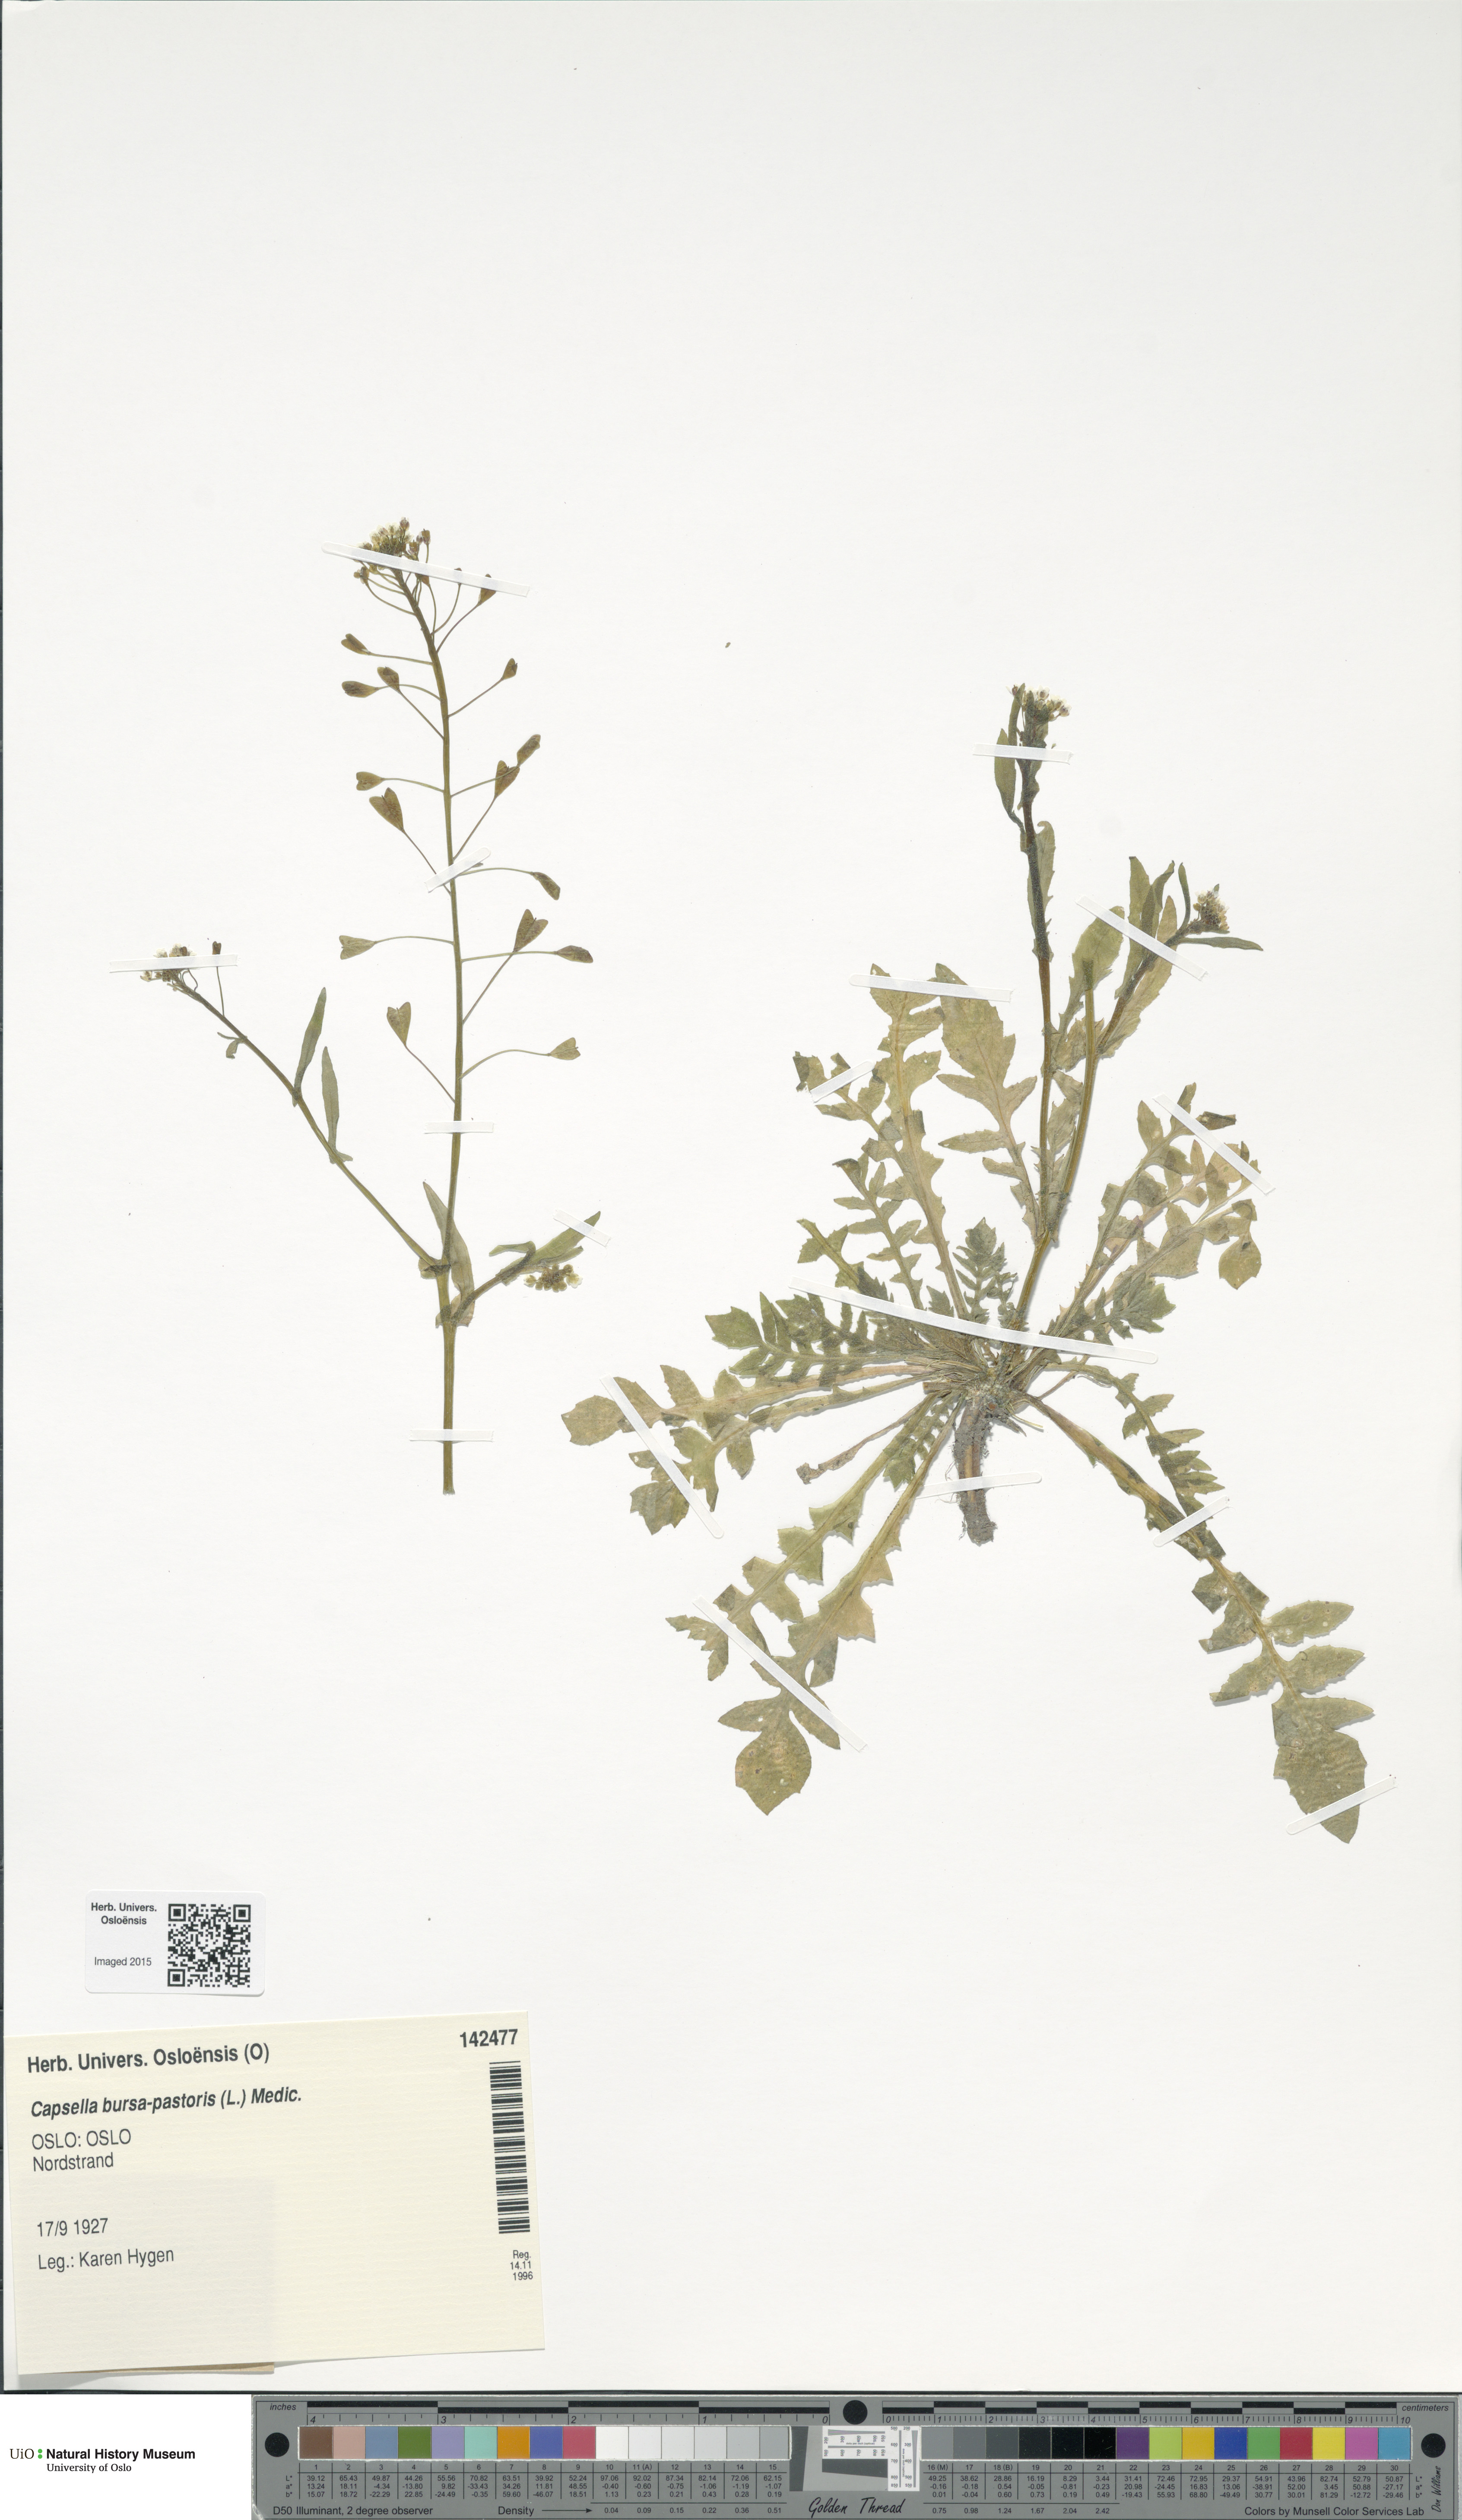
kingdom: Plantae
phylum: Tracheophyta
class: Magnoliopsida
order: Brassicales
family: Brassicaceae
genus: Capsella
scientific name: Capsella bursa-pastoris
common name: Shepherd's purse
